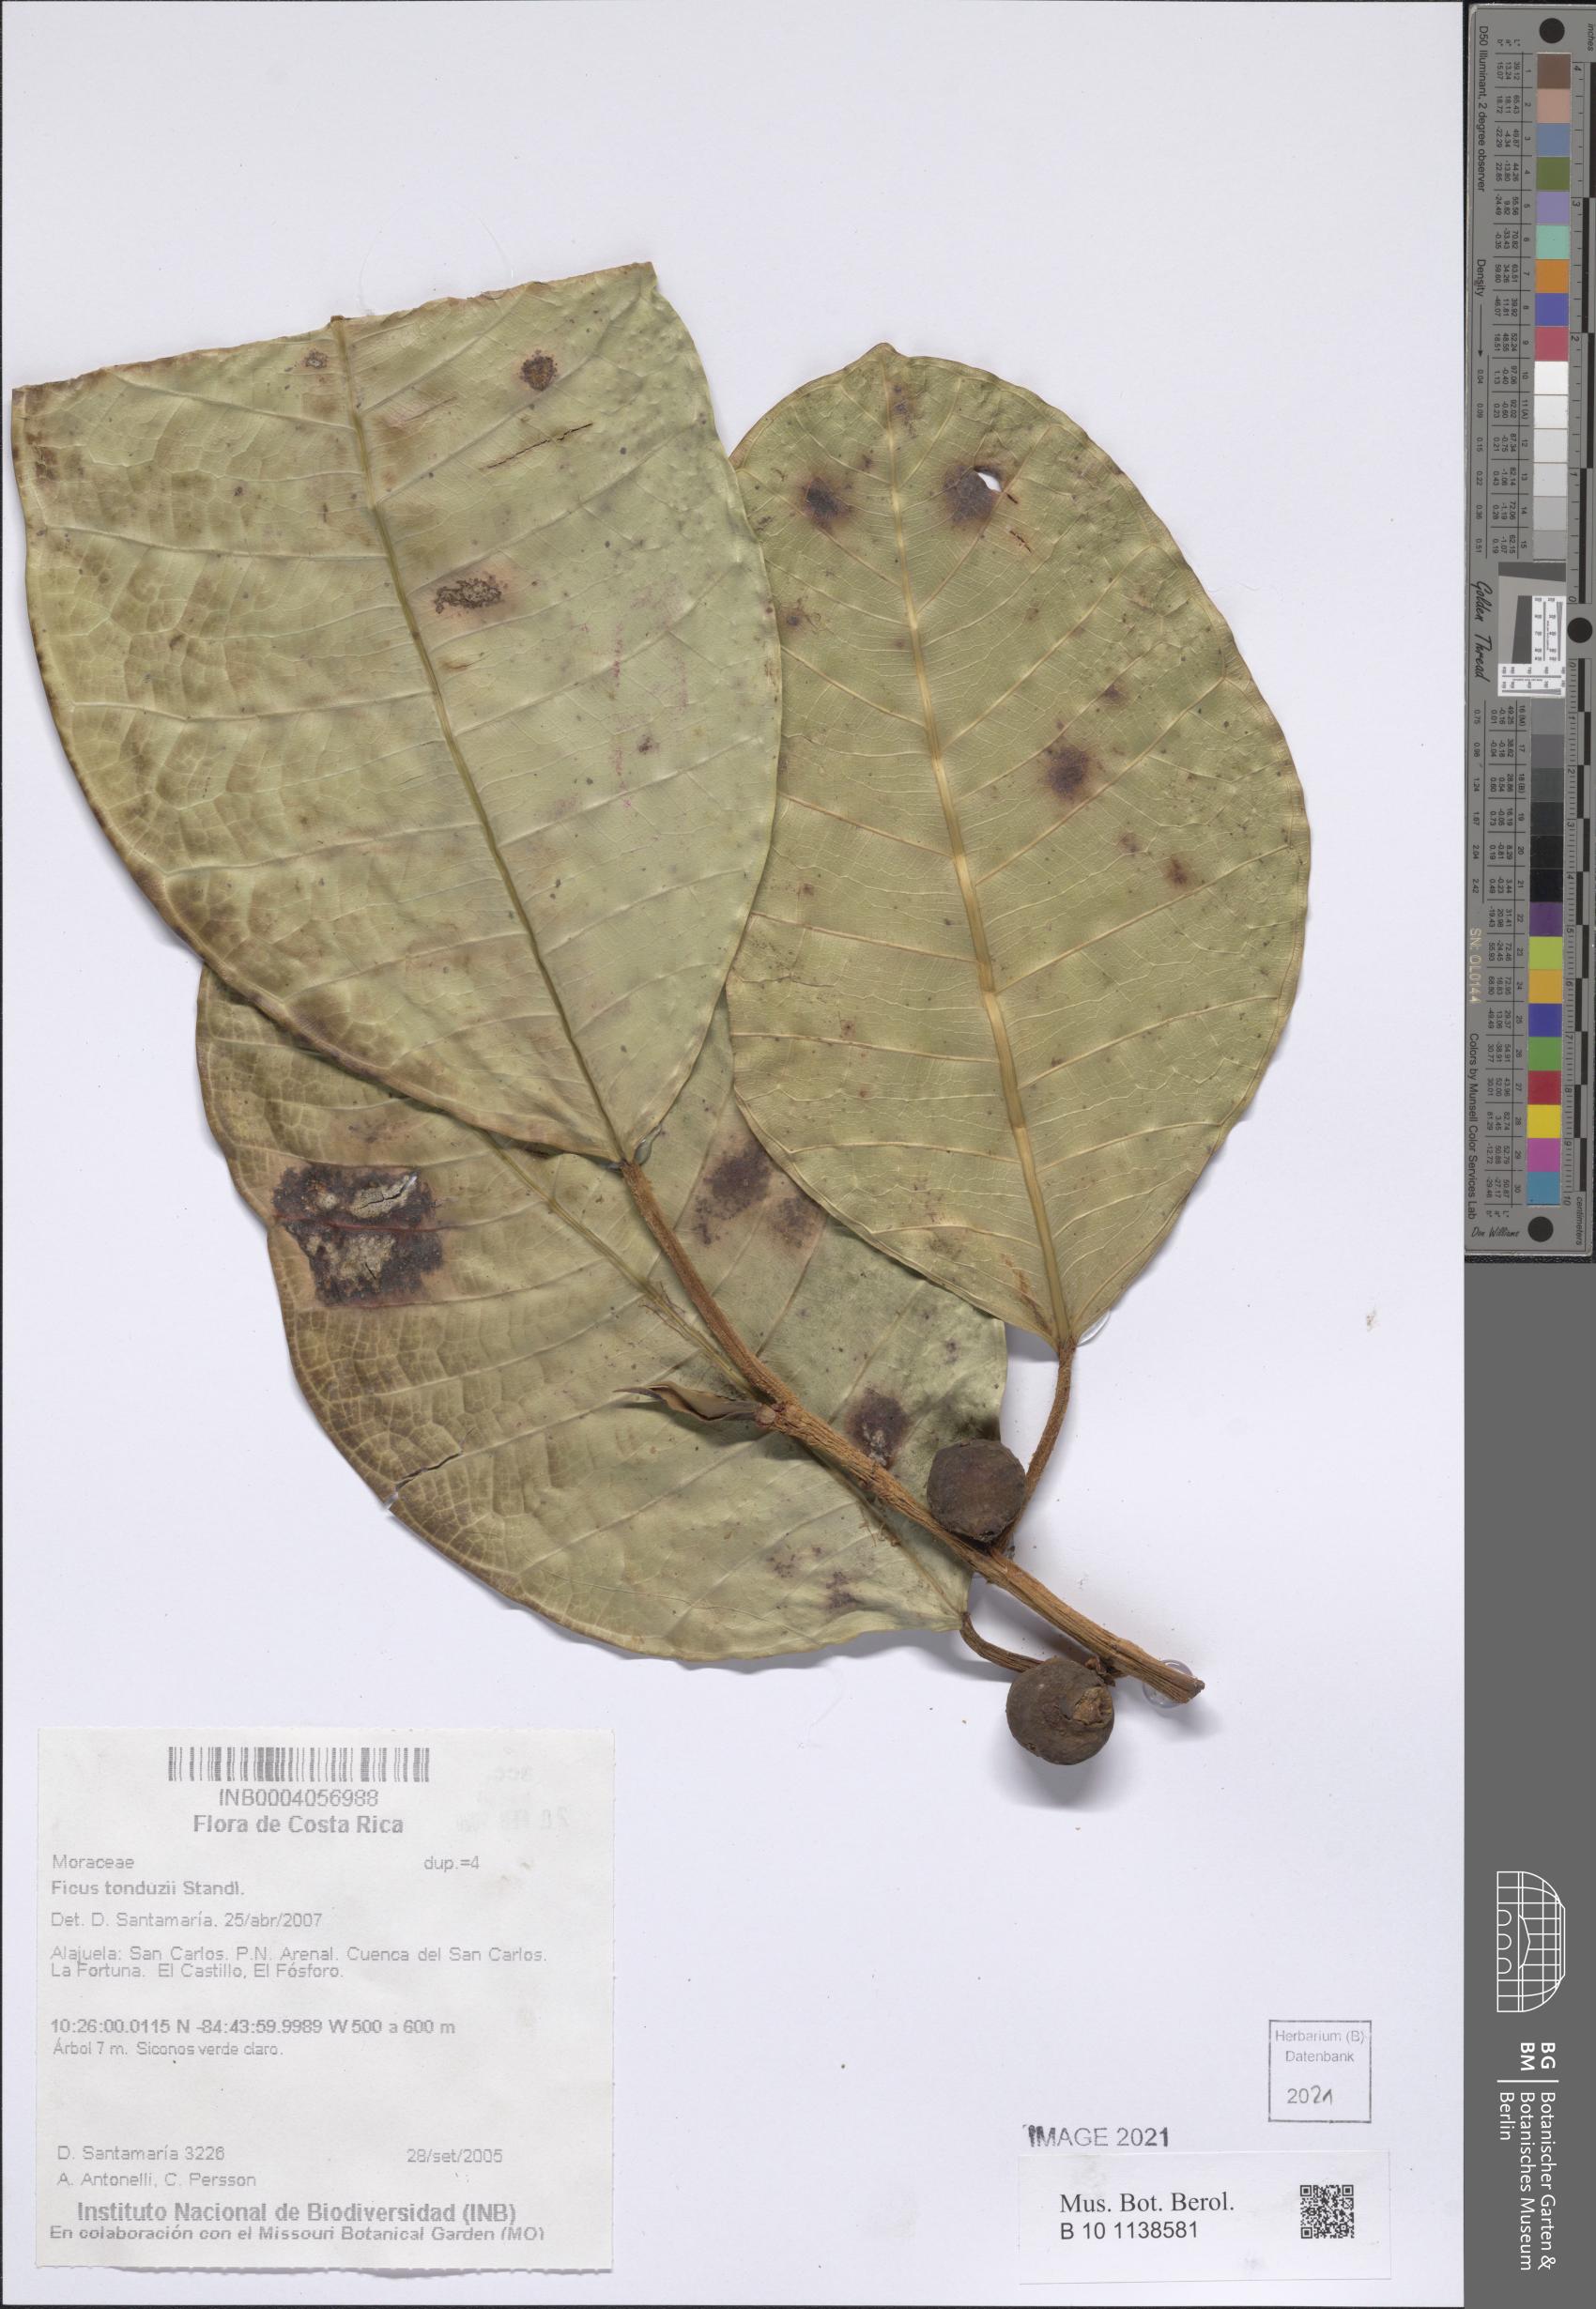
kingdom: Plantae
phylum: Tracheophyta
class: Magnoliopsida
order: Rosales
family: Moraceae
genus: Ficus
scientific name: Ficus tonduzii
